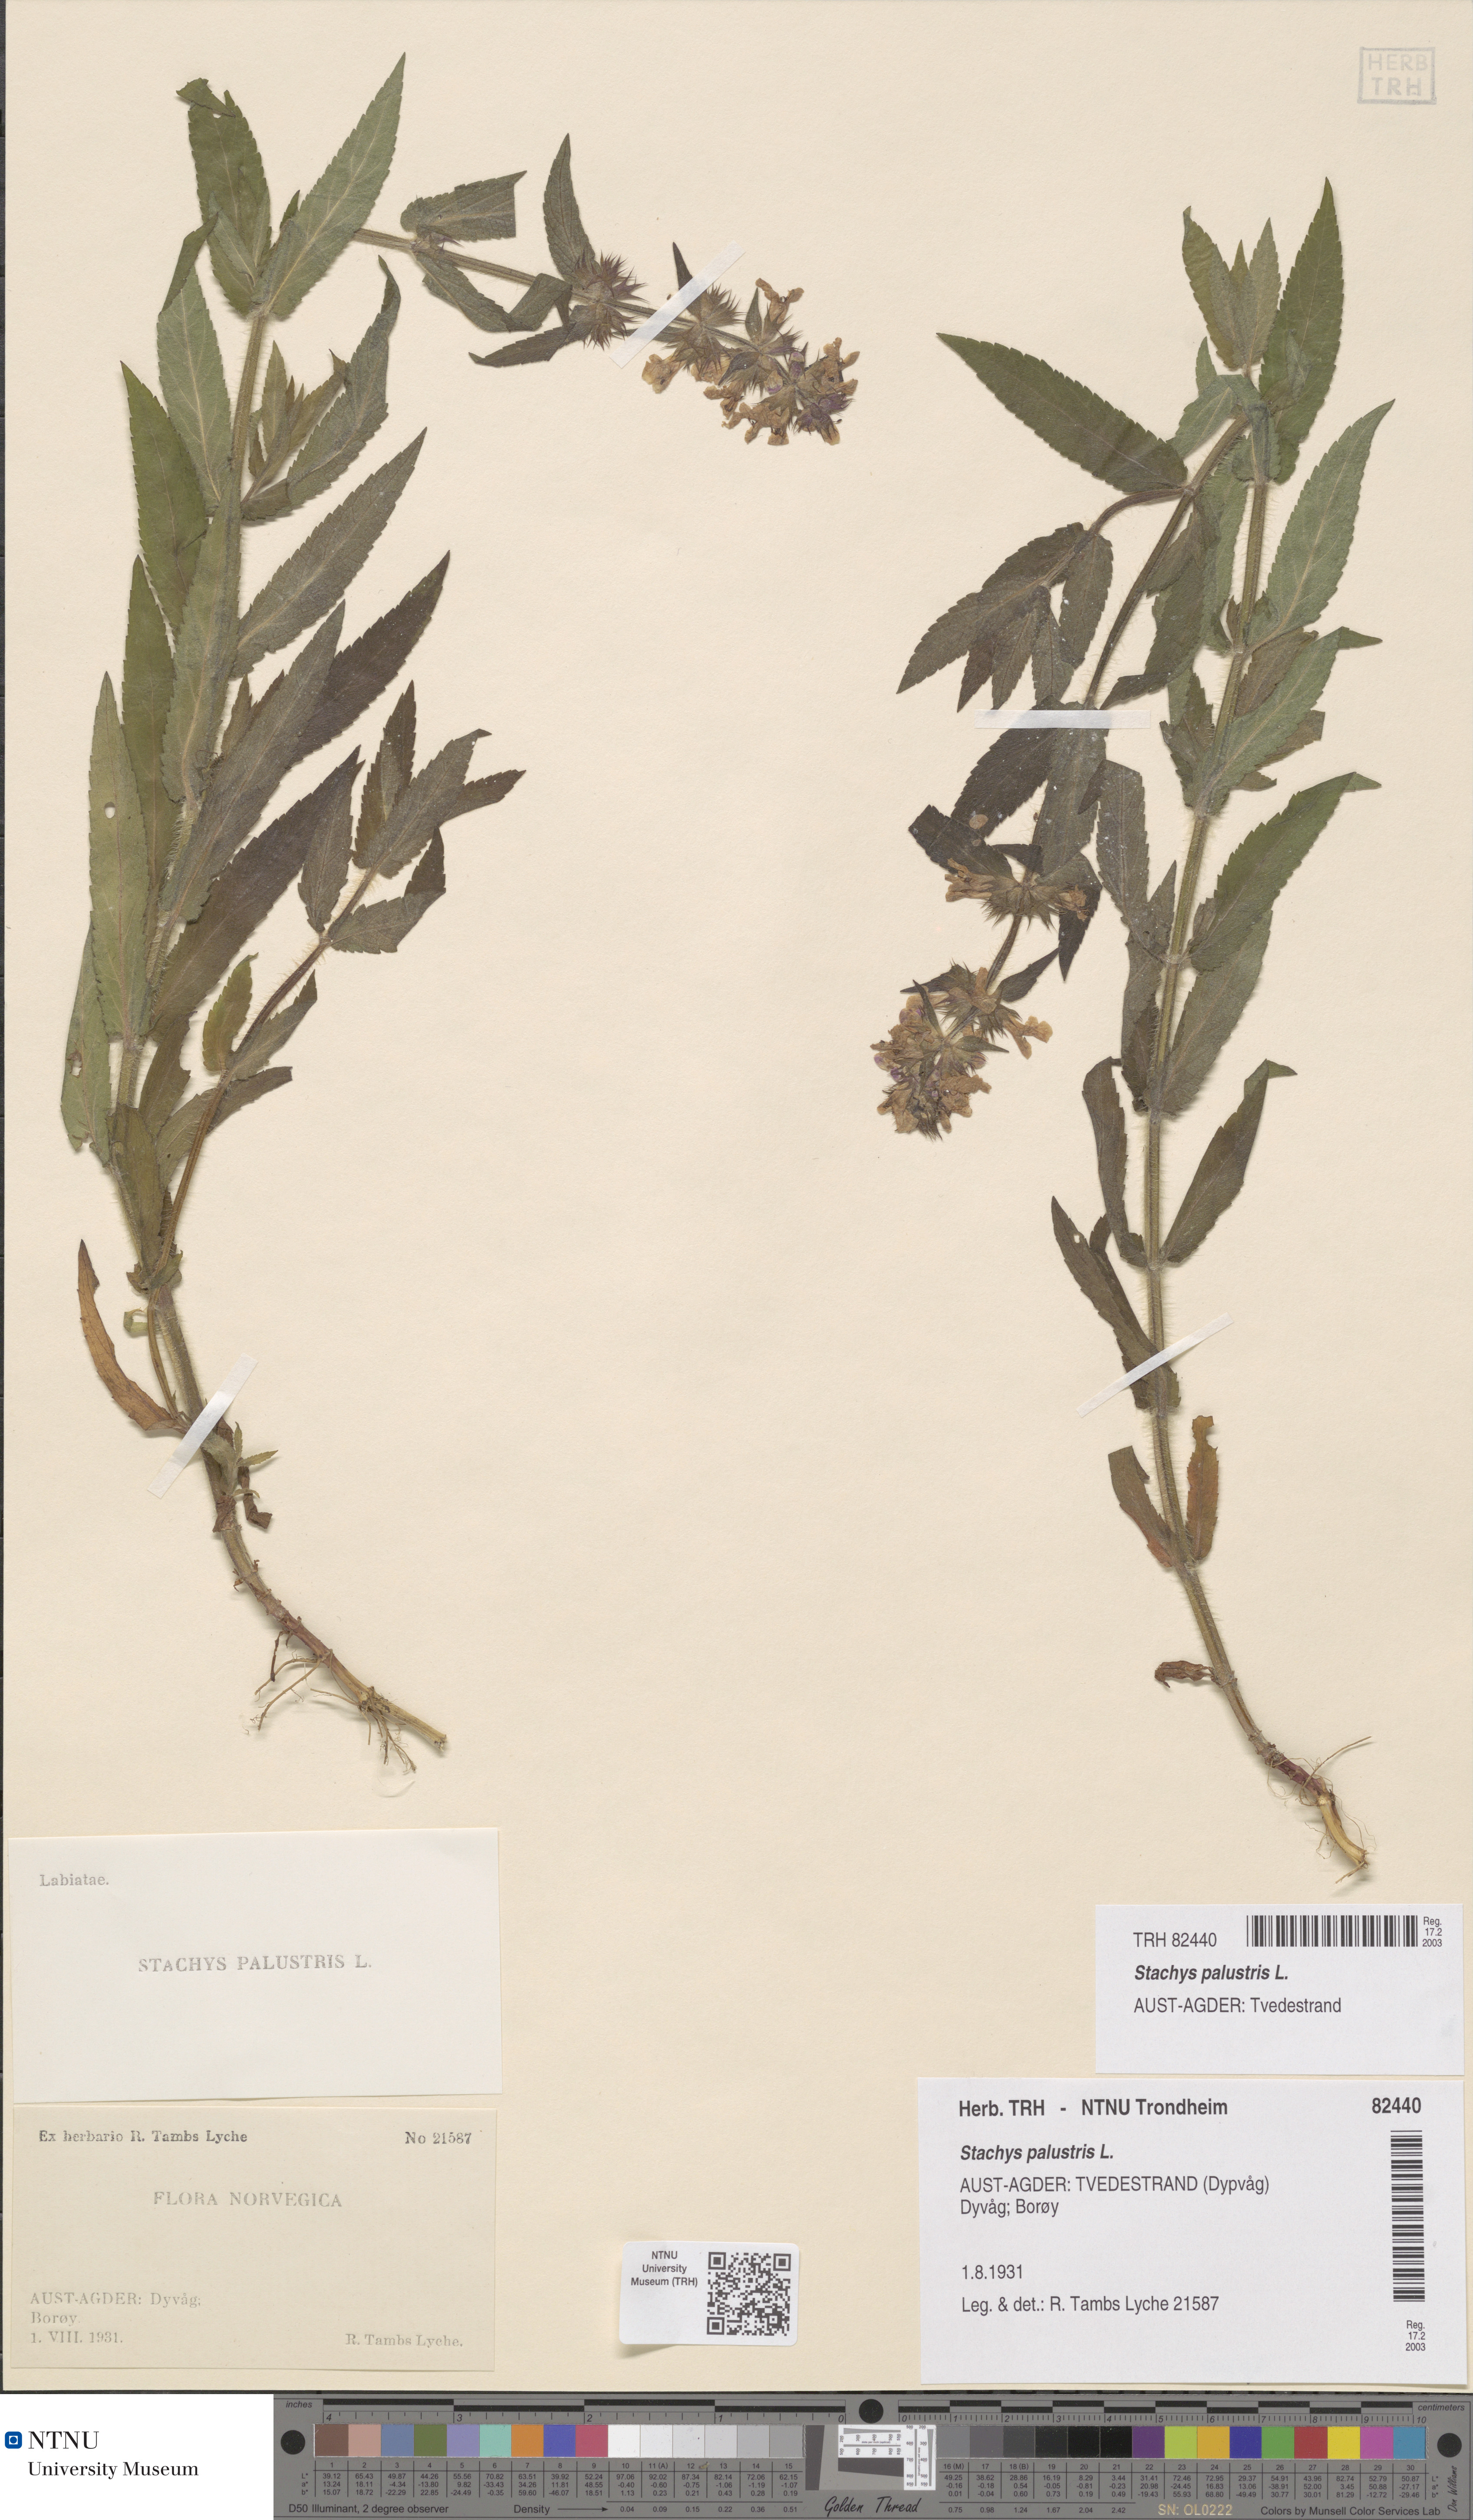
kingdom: Plantae
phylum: Tracheophyta
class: Magnoliopsida
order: Lamiales
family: Lamiaceae
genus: Stachys
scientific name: Stachys palustris
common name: Marsh woundwort
